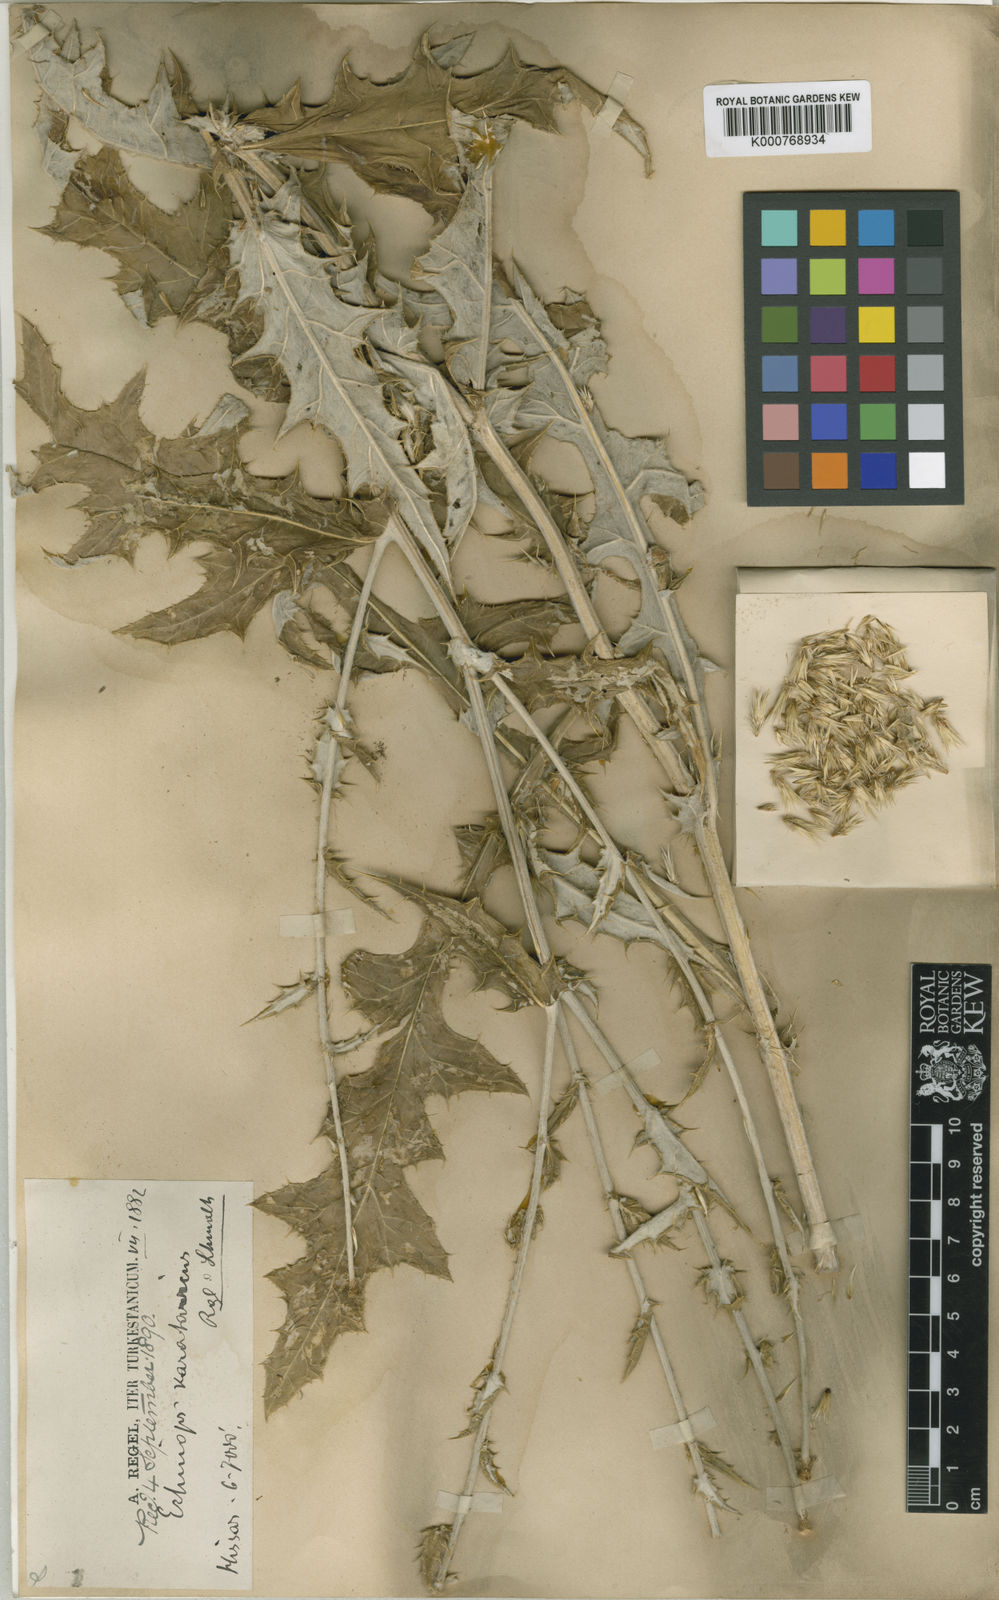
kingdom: Plantae
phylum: Tracheophyta
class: Magnoliopsida
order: Asterales
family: Asteraceae
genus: Echinops
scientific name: Echinops karatavicus
